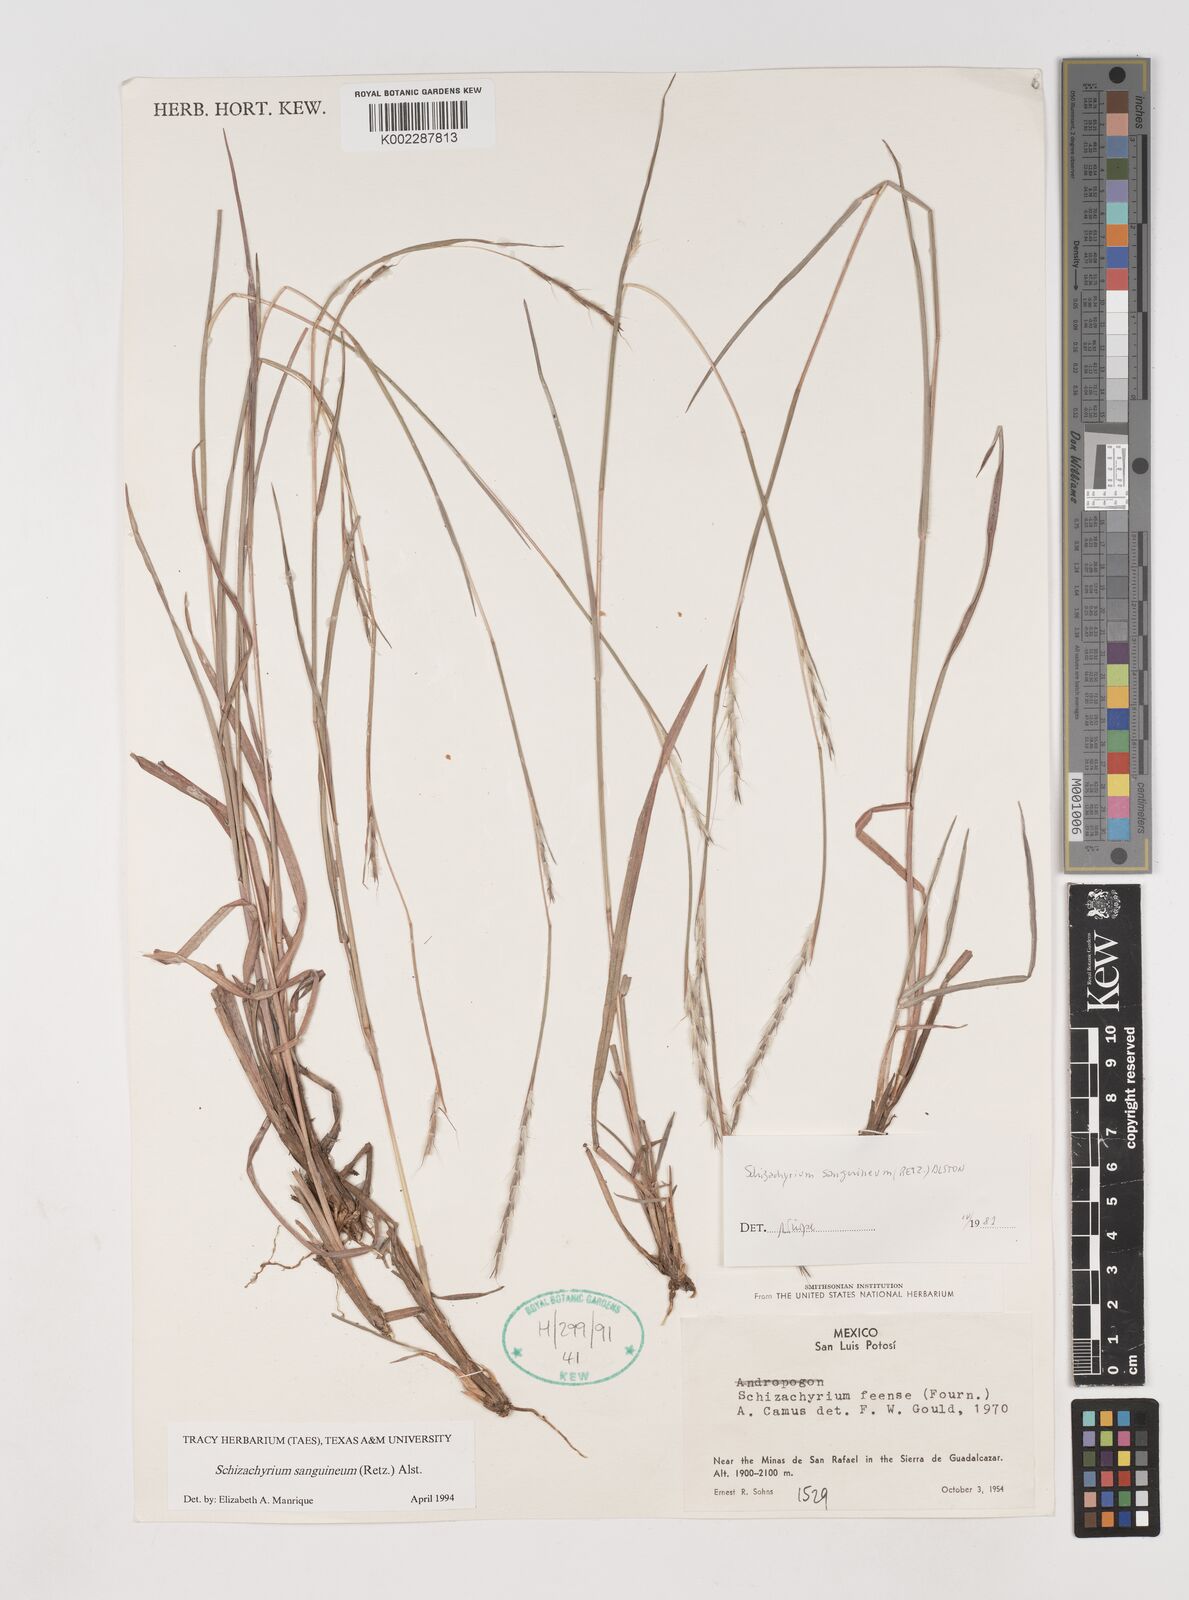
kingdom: Plantae
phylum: Tracheophyta
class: Liliopsida
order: Poales
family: Poaceae
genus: Schizachyrium
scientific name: Schizachyrium sanguineum
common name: Crimson bluestem
